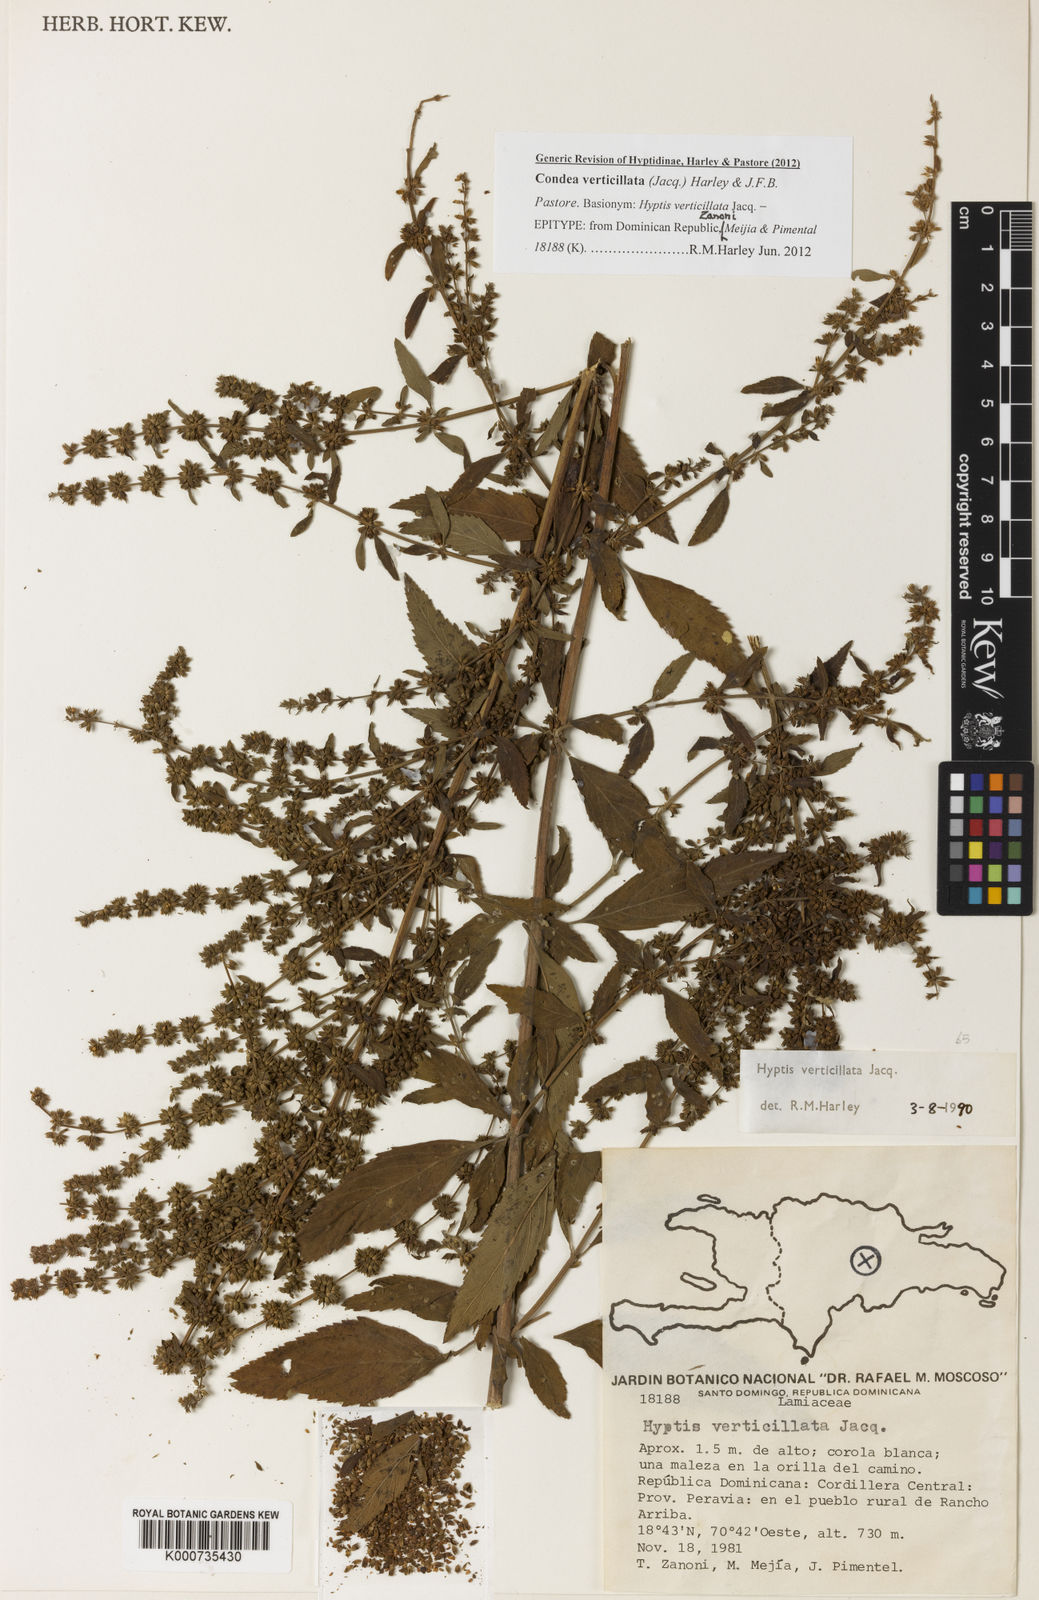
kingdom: Plantae
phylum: Tracheophyta
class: Magnoliopsida
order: Lamiales
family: Lamiaceae
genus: Condea
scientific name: Condea verticillata
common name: John charles
